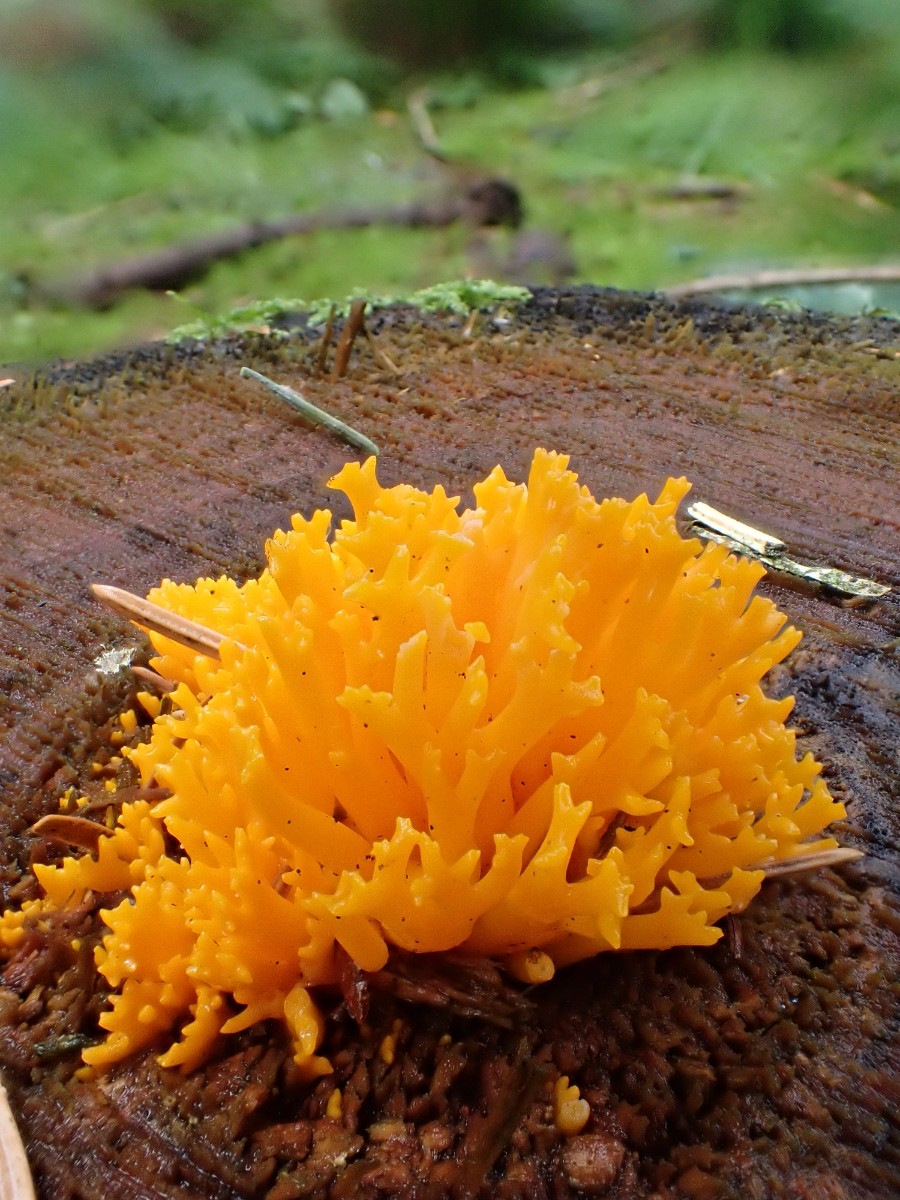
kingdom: Fungi
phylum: Basidiomycota
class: Dacrymycetes
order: Dacrymycetales
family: Dacrymycetaceae
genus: Calocera
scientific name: Calocera viscosa
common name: almindelig guldgaffel
